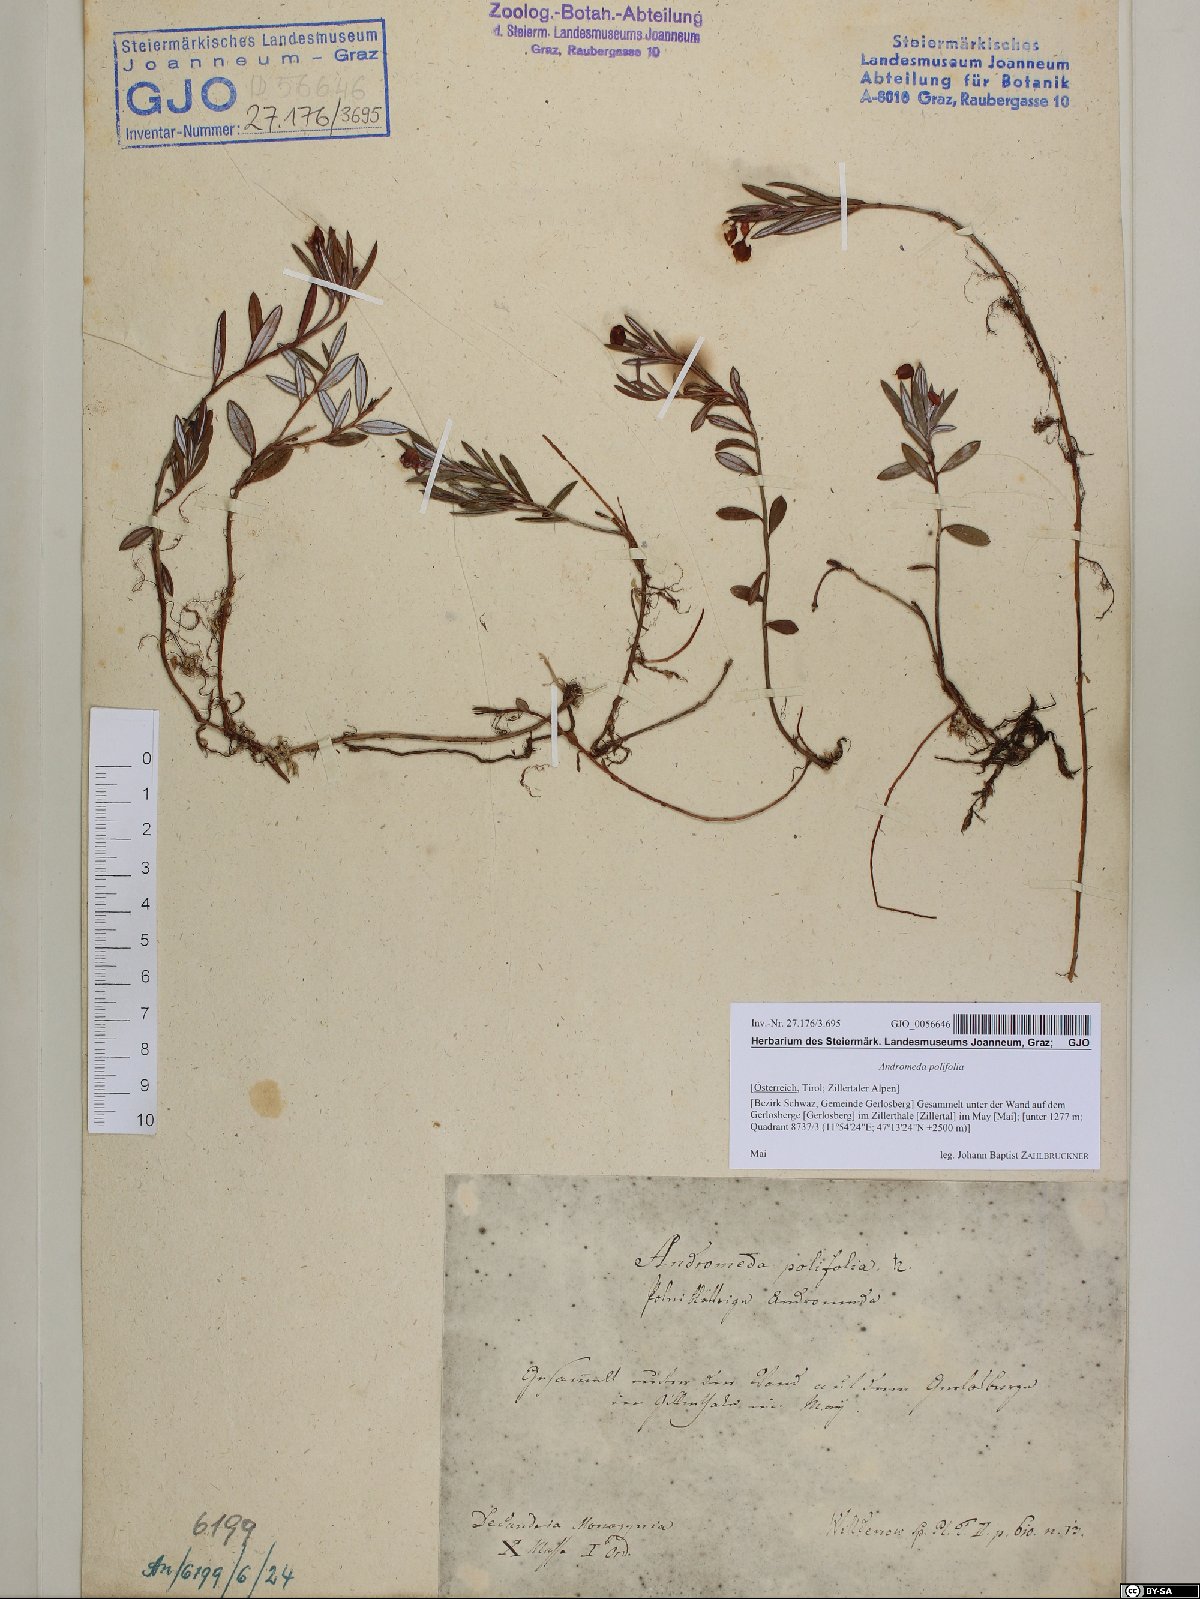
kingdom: Plantae
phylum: Tracheophyta
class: Magnoliopsida
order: Ericales
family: Ericaceae
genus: Andromeda
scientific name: Andromeda polifolia
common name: Bog-rosemary
